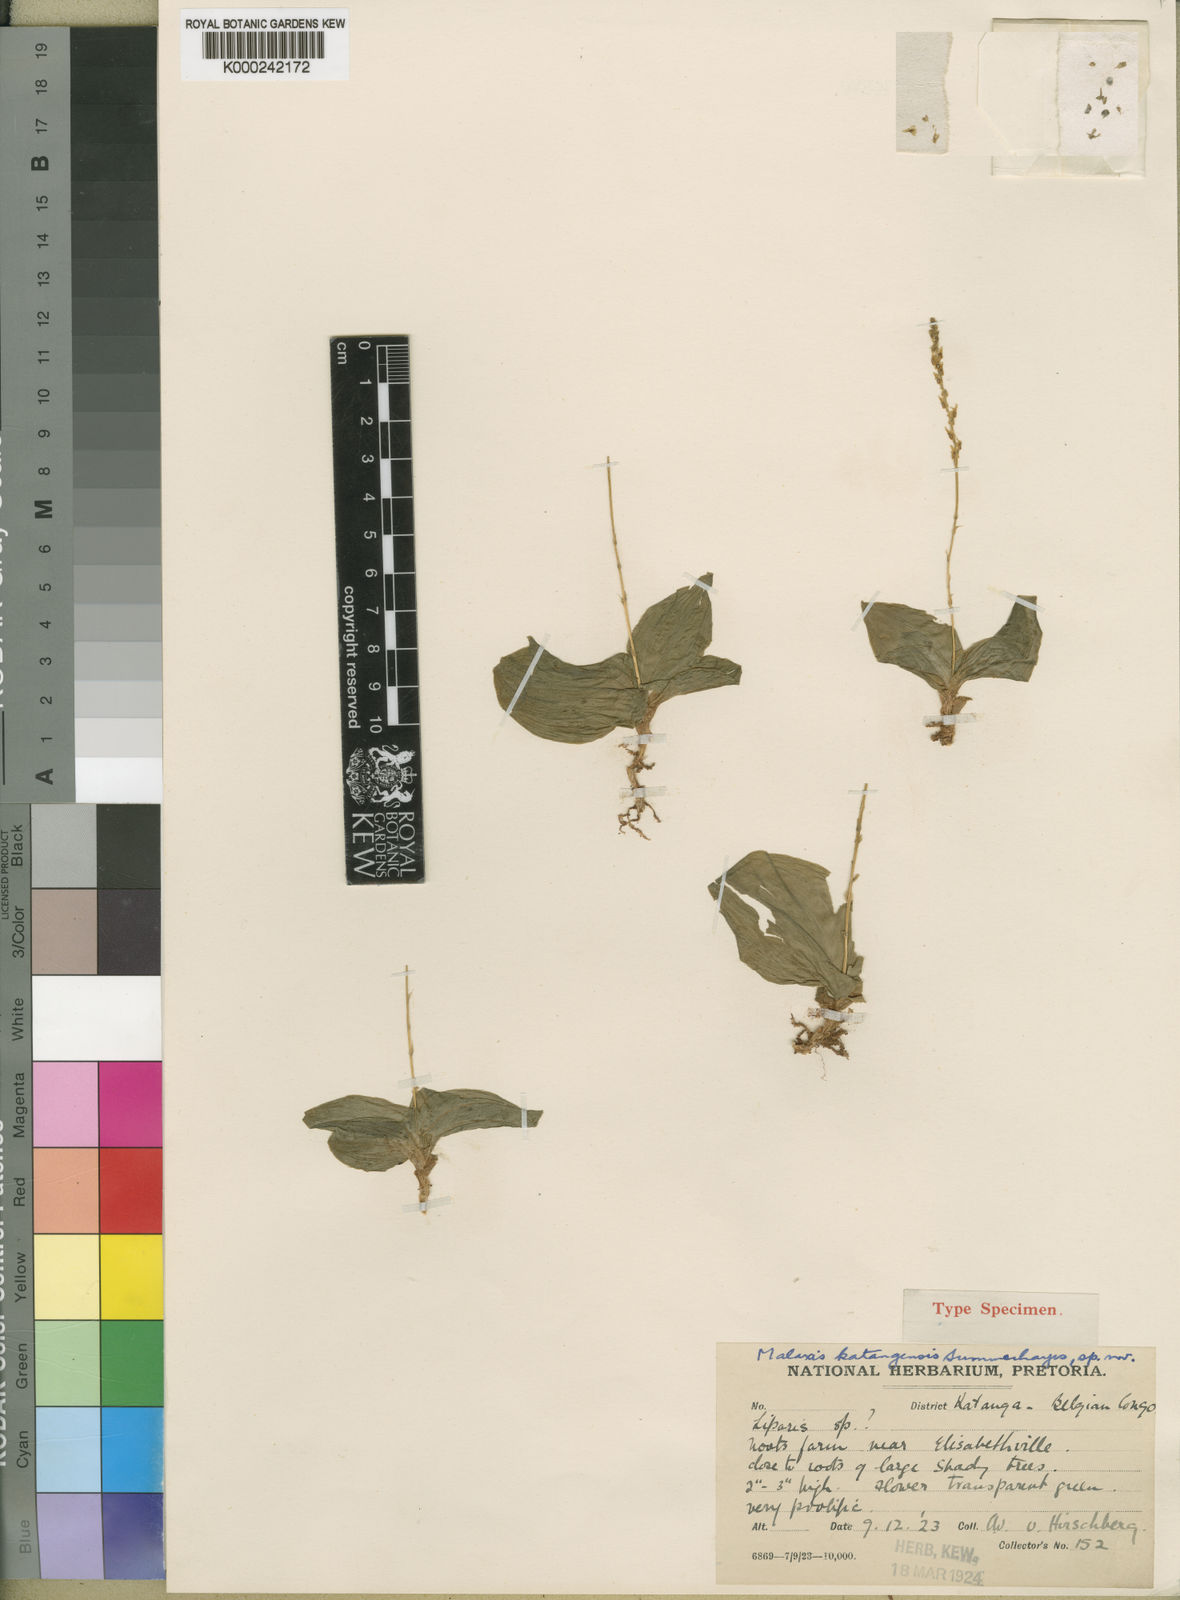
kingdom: Plantae
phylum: Tracheophyta
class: Liliopsida
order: Asparagales
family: Orchidaceae
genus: Malaxis
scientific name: Malaxis katangensis
